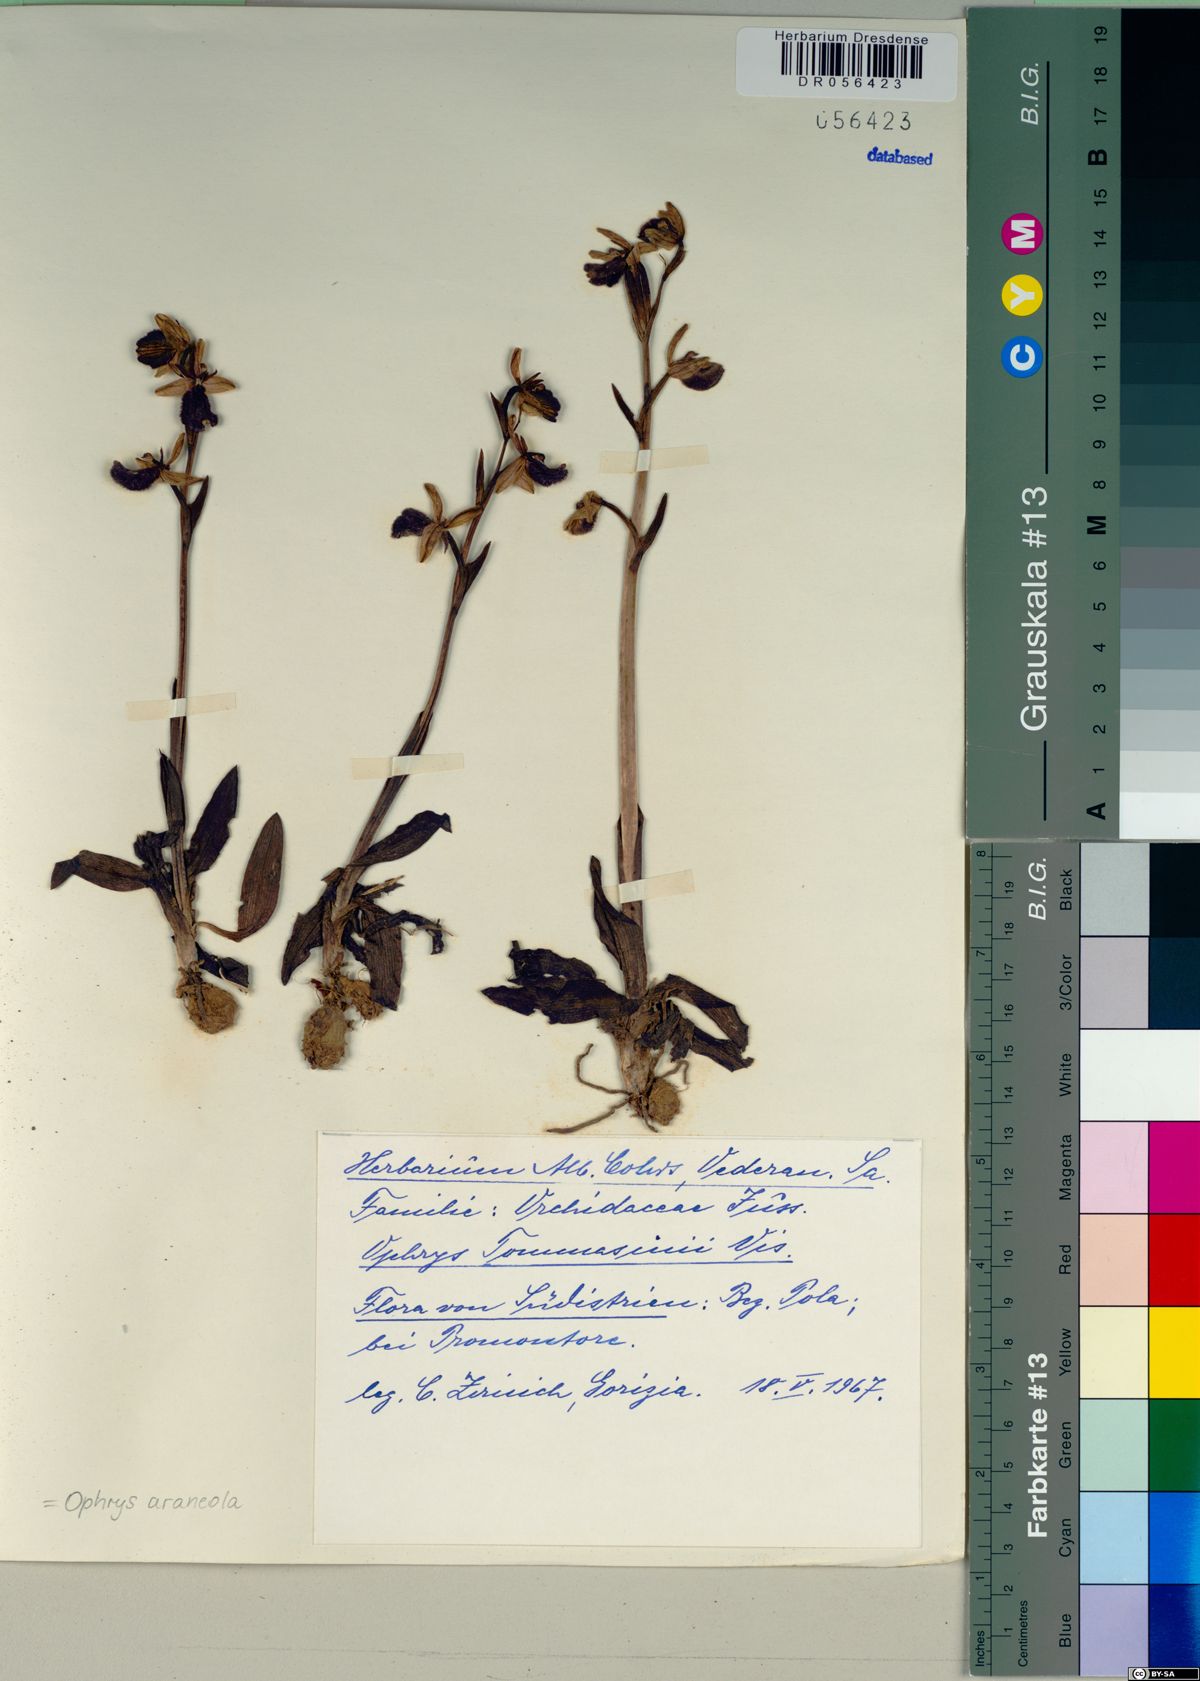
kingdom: Plantae
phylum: Tracheophyta
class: Liliopsida
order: Asparagales
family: Orchidaceae
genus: Ophrys
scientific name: Ophrys sphegodes
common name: Early spider-orchid
